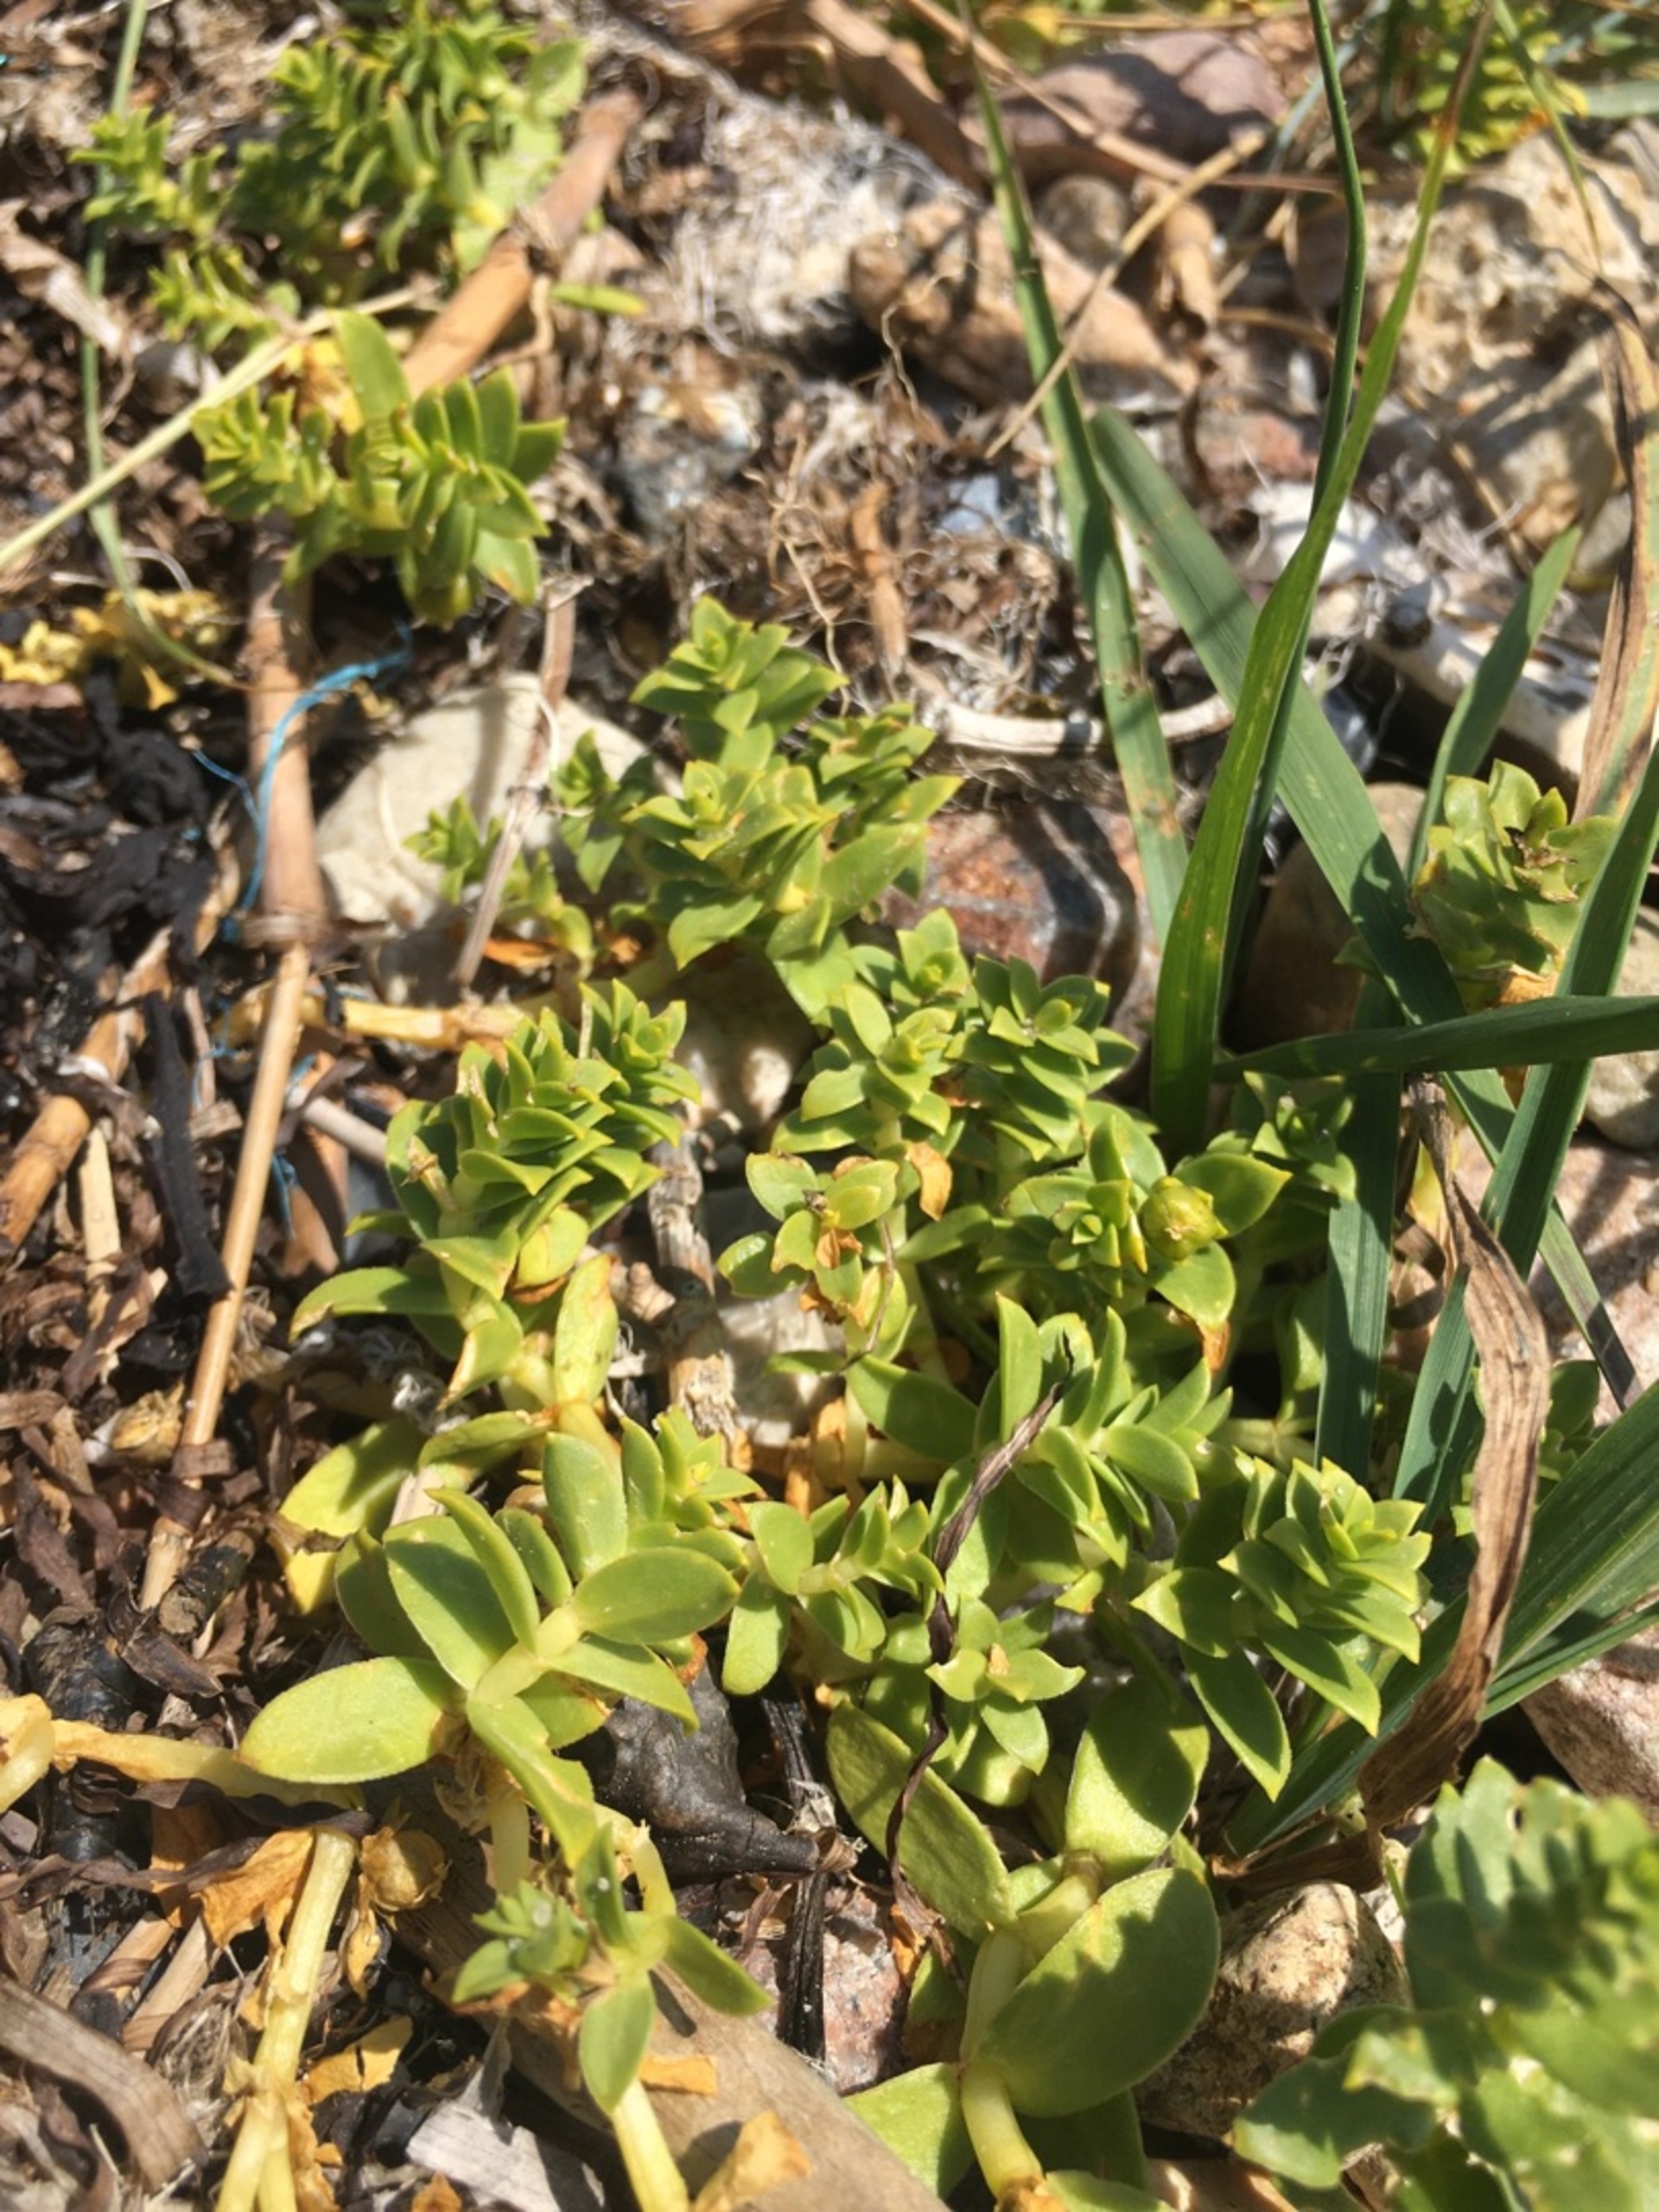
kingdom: Plantae
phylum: Tracheophyta
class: Magnoliopsida
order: Caryophyllales
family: Caryophyllaceae
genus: Honckenya
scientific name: Honckenya peploides
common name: Strandarve
